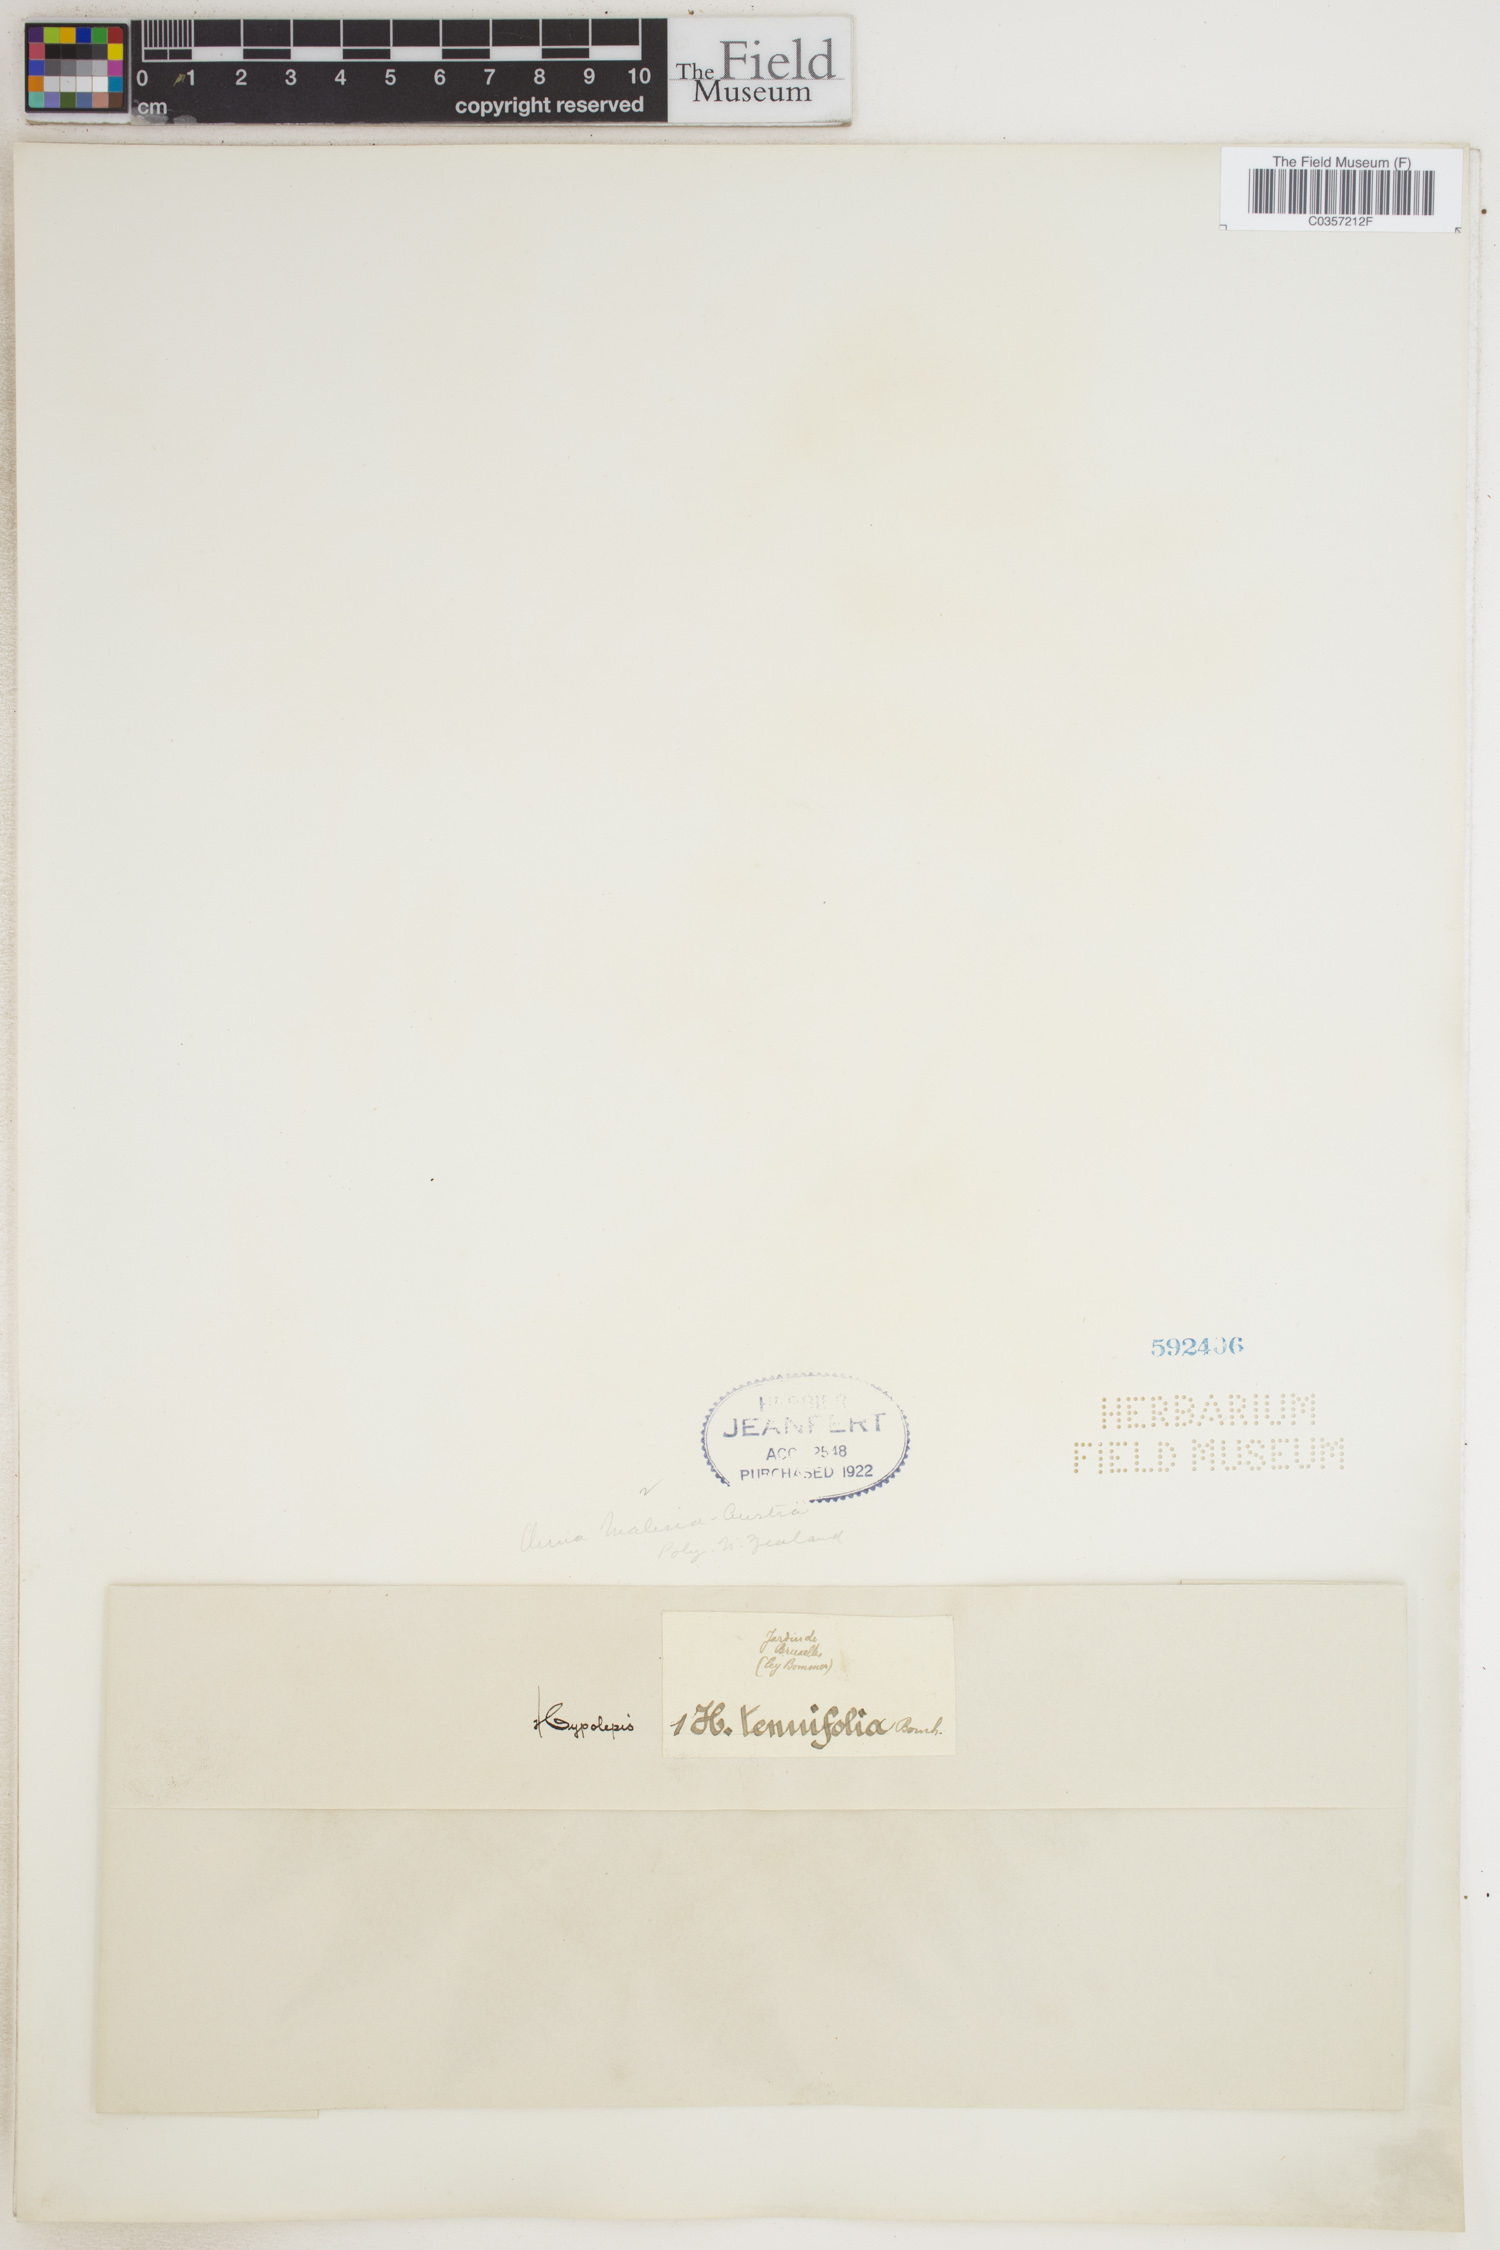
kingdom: Plantae
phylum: Tracheophyta
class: Polypodiopsida
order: Polypodiales
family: Dennstaedtiaceae
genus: Hypolepis
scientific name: Hypolepis tenuifolia
